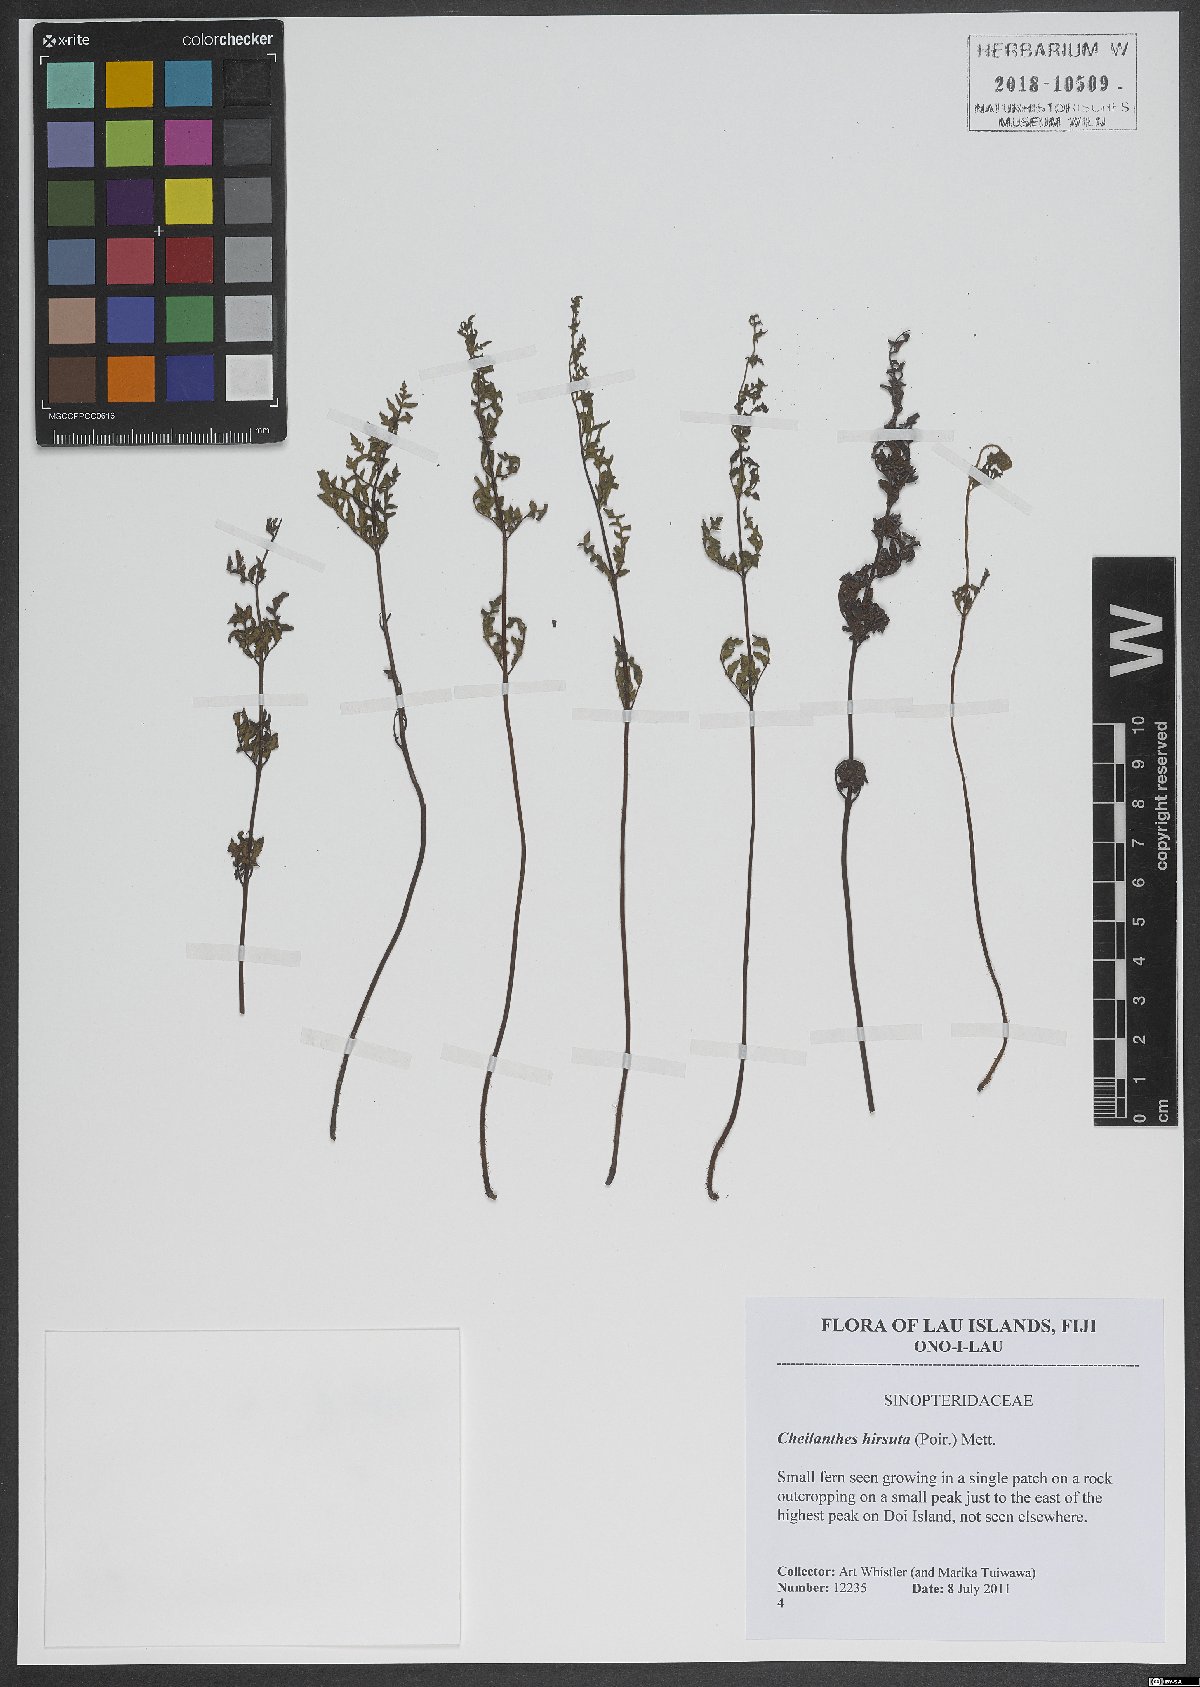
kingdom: Plantae
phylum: Tracheophyta
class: Polypodiopsida
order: Polypodiales
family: Pteridaceae
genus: Gaga
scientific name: Gaga hirsuta
